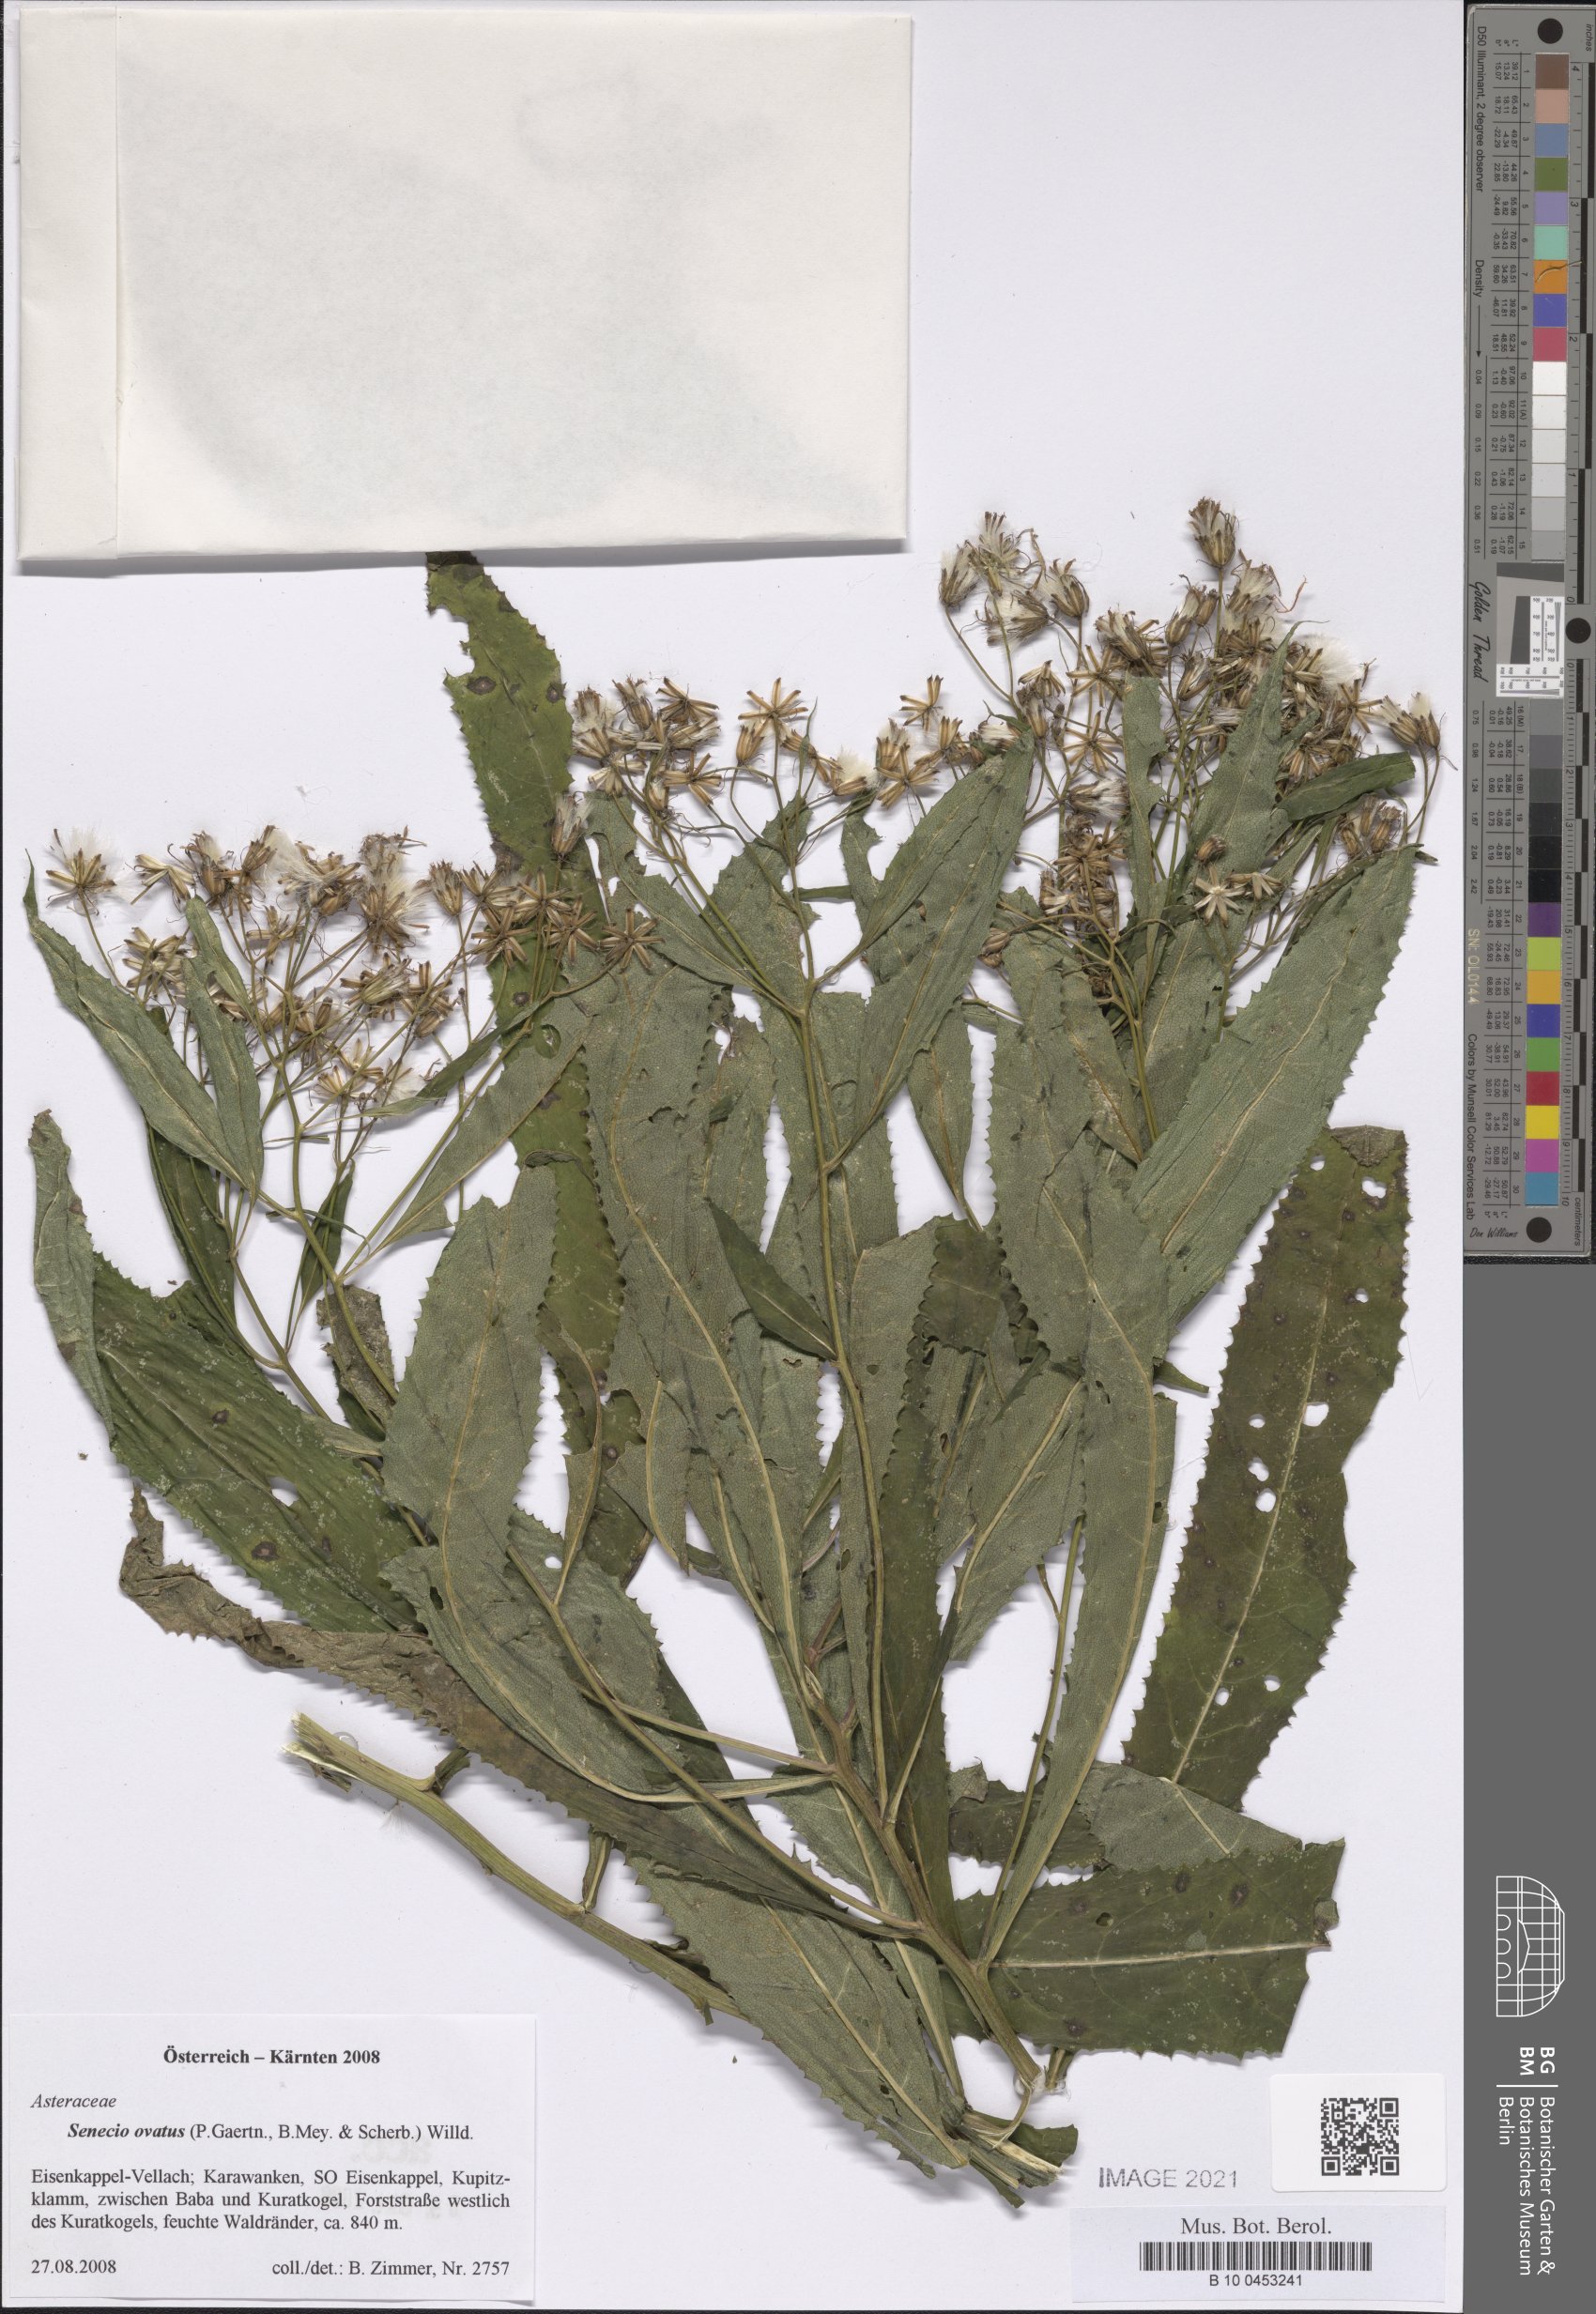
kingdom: Plantae
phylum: Tracheophyta
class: Magnoliopsida
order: Asterales
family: Asteraceae
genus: Senecio
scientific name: Senecio ovatus
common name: Wood ragwort
